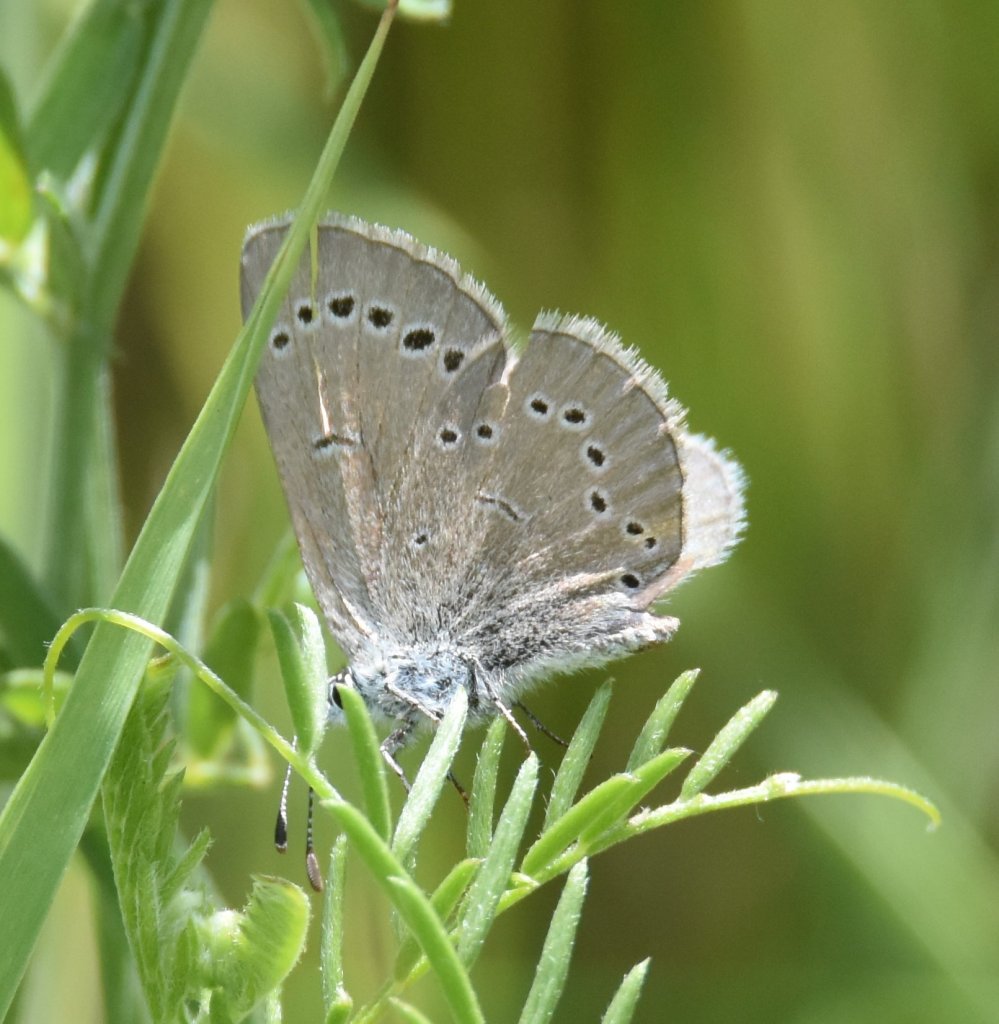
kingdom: Animalia
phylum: Arthropoda
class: Insecta
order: Lepidoptera
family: Lycaenidae
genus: Glaucopsyche
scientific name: Glaucopsyche lygdamus
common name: Silvery Blue
